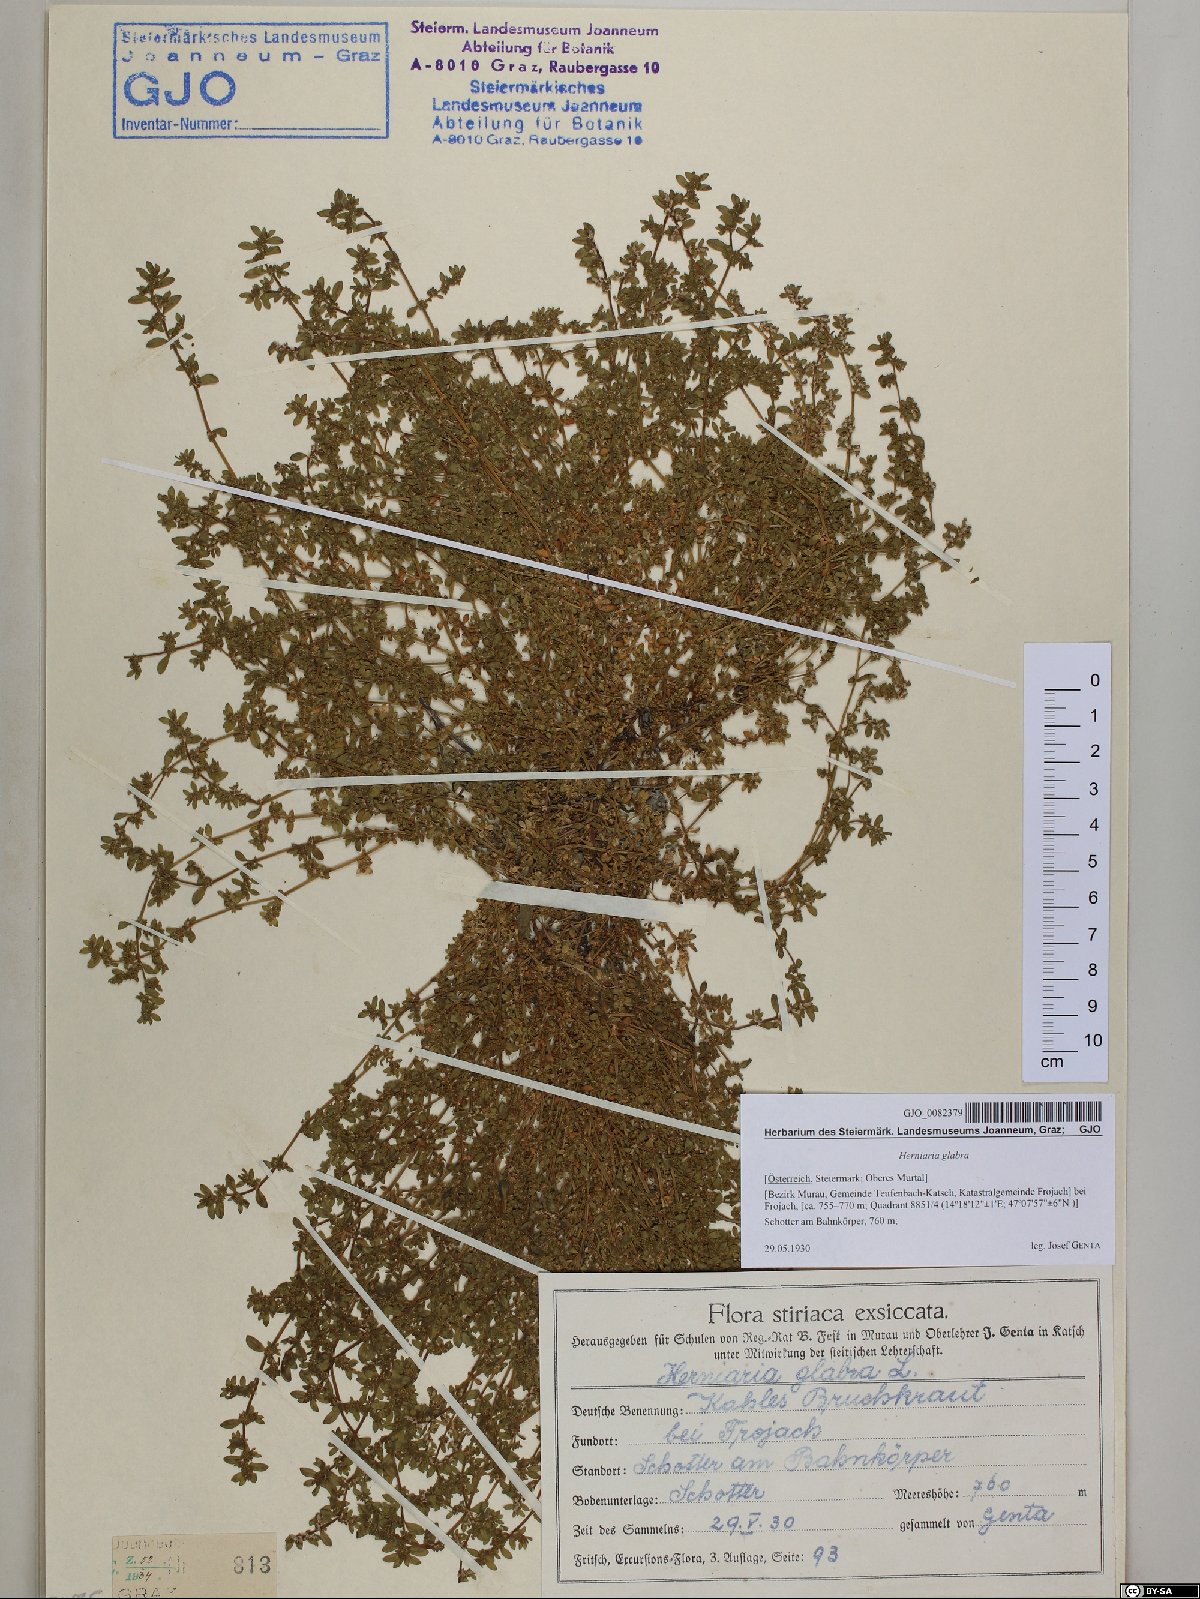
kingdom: Plantae
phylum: Tracheophyta
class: Magnoliopsida
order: Caryophyllales
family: Caryophyllaceae
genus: Herniaria
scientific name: Herniaria glabra
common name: Smooth rupturewort
